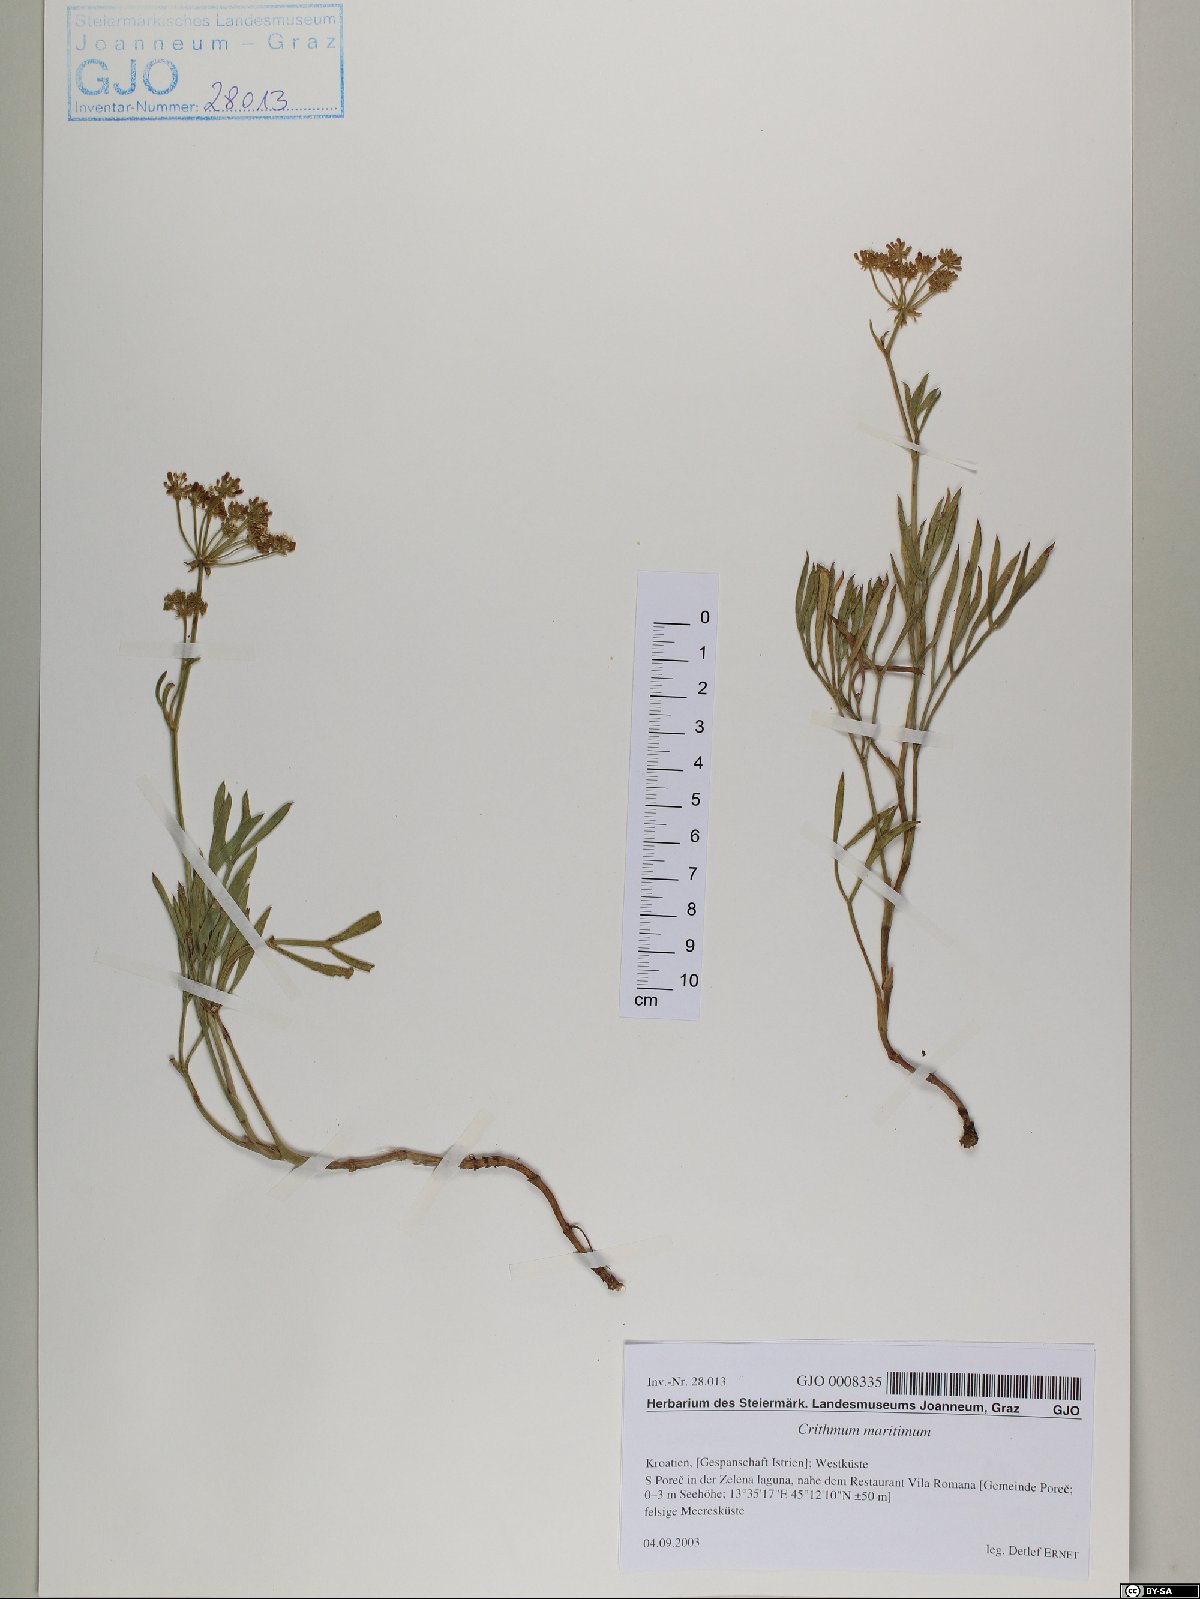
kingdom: Plantae
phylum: Tracheophyta
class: Magnoliopsida
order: Apiales
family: Apiaceae
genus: Crithmum
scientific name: Crithmum maritimum
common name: Rock samphire
